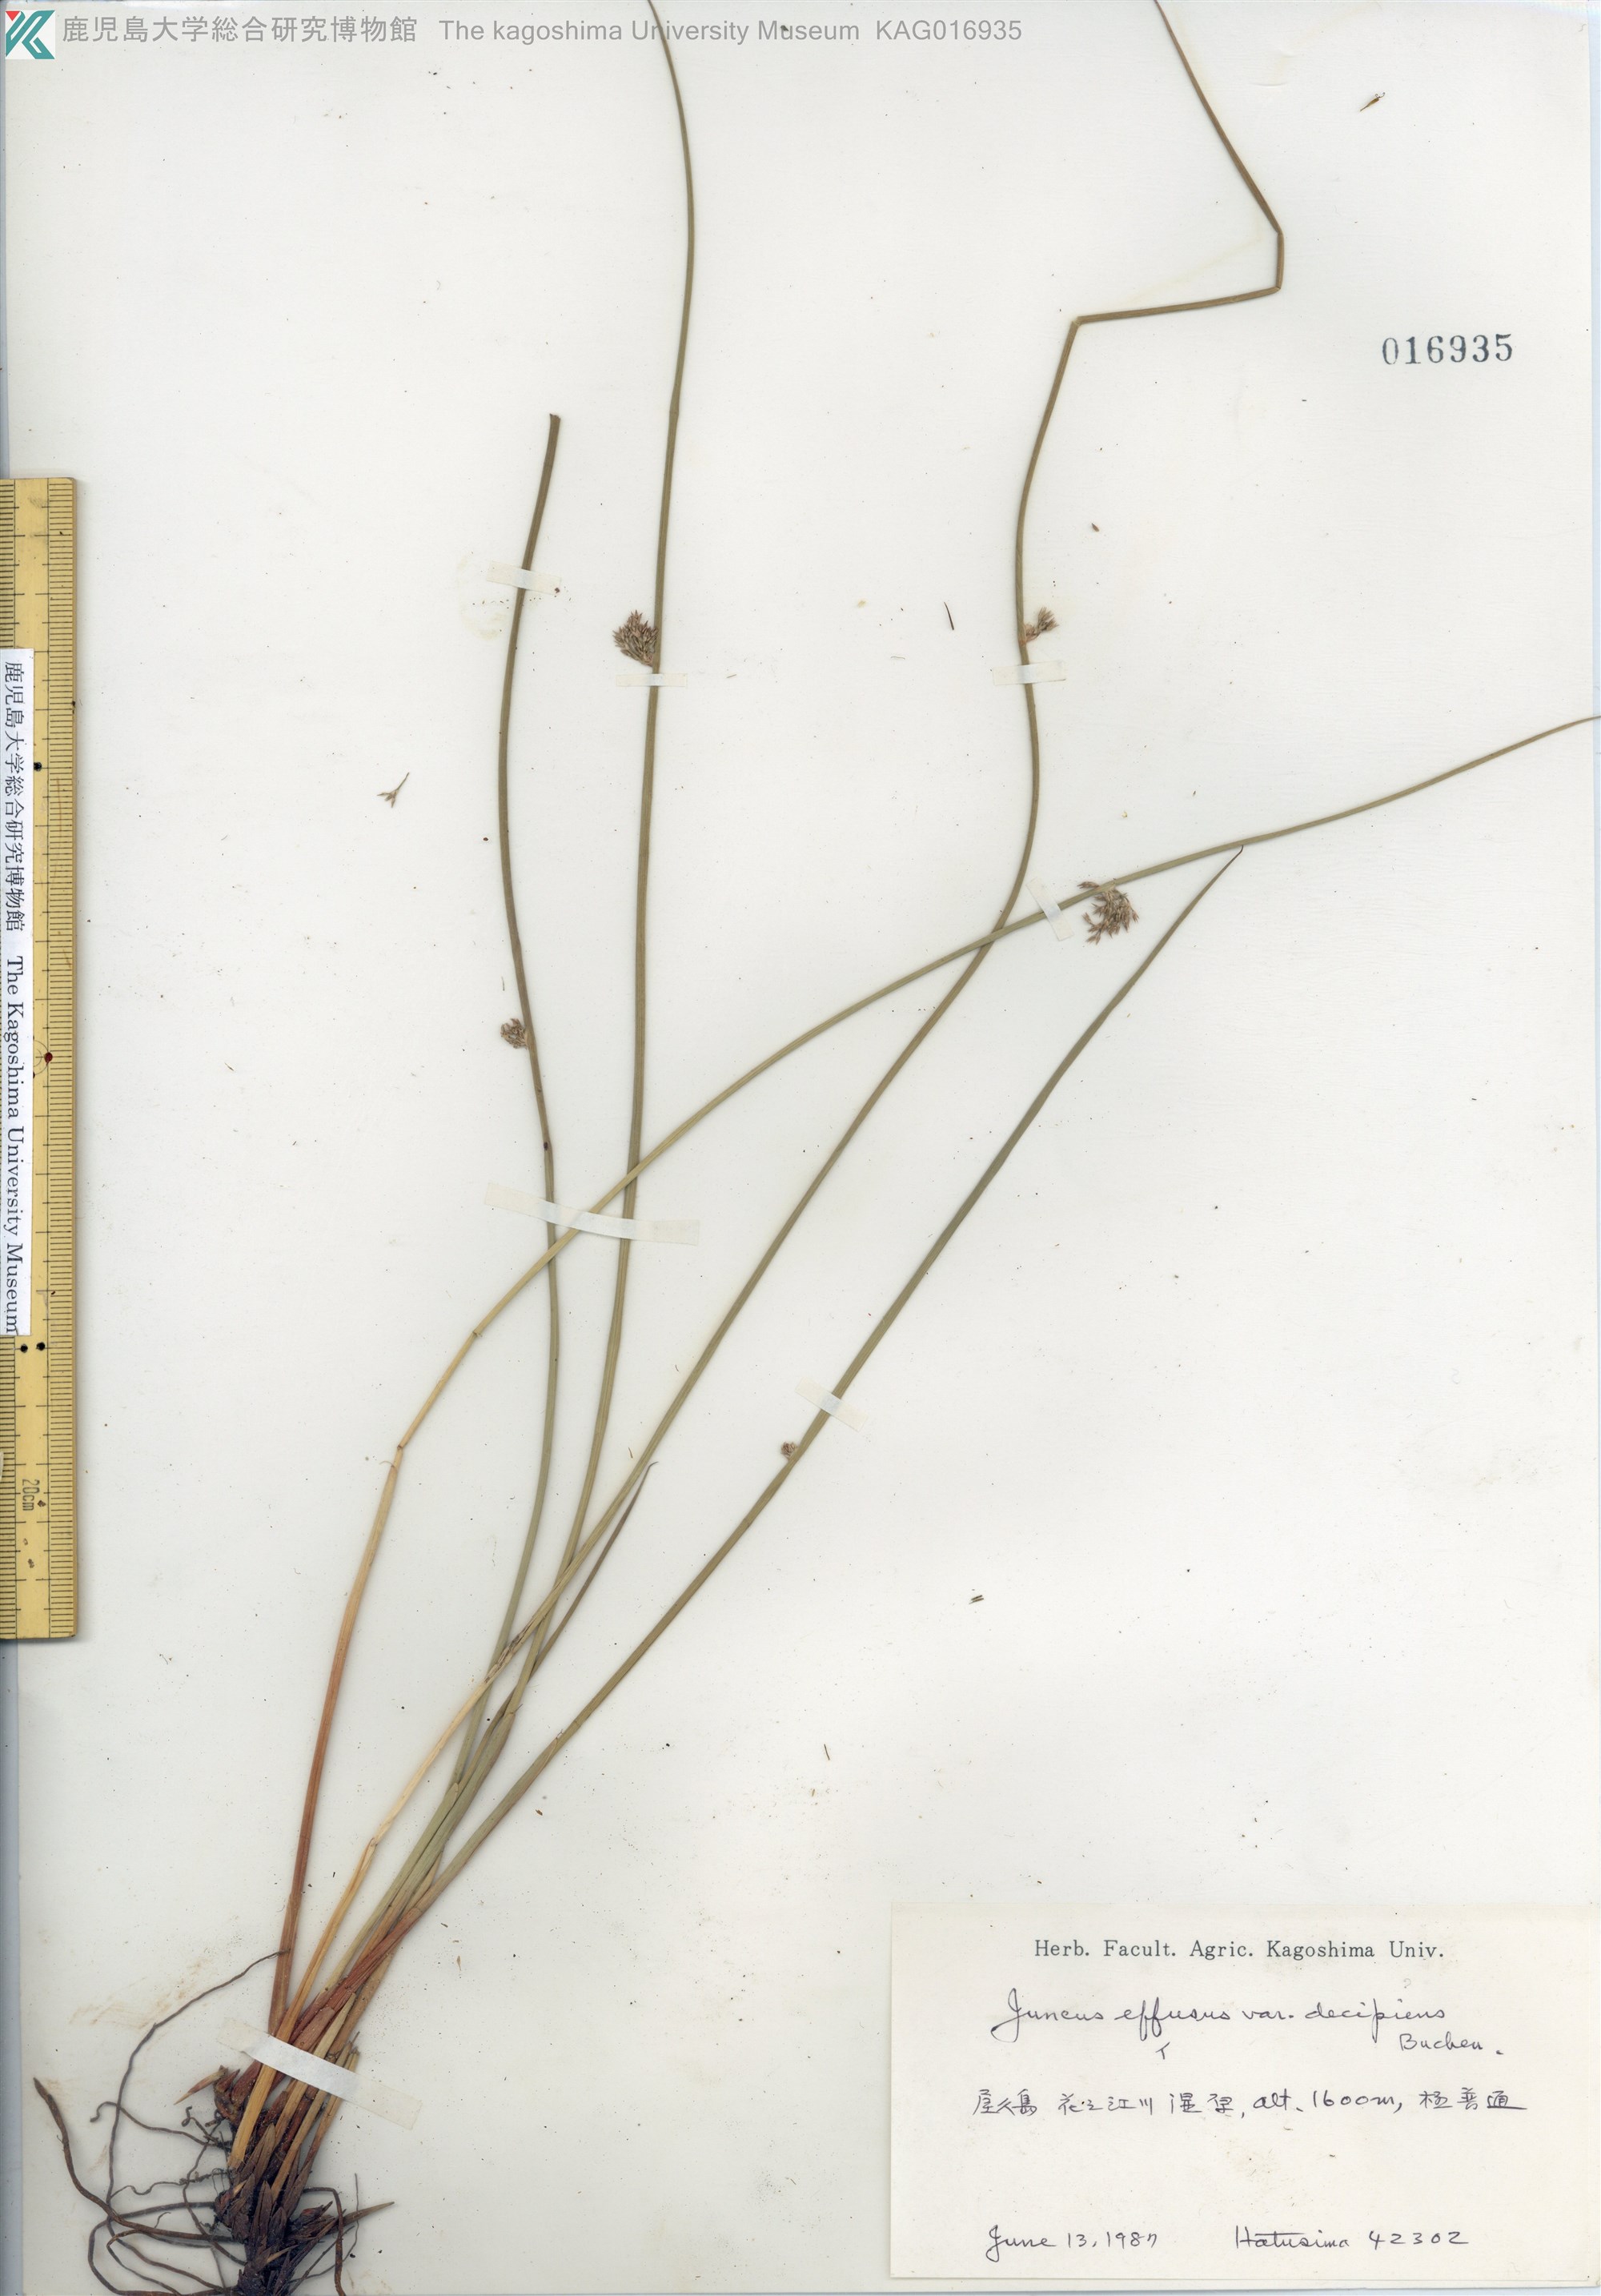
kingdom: Plantae
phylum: Tracheophyta
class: Liliopsida
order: Poales
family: Juncaceae
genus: Juncus
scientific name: Juncus decipiens
